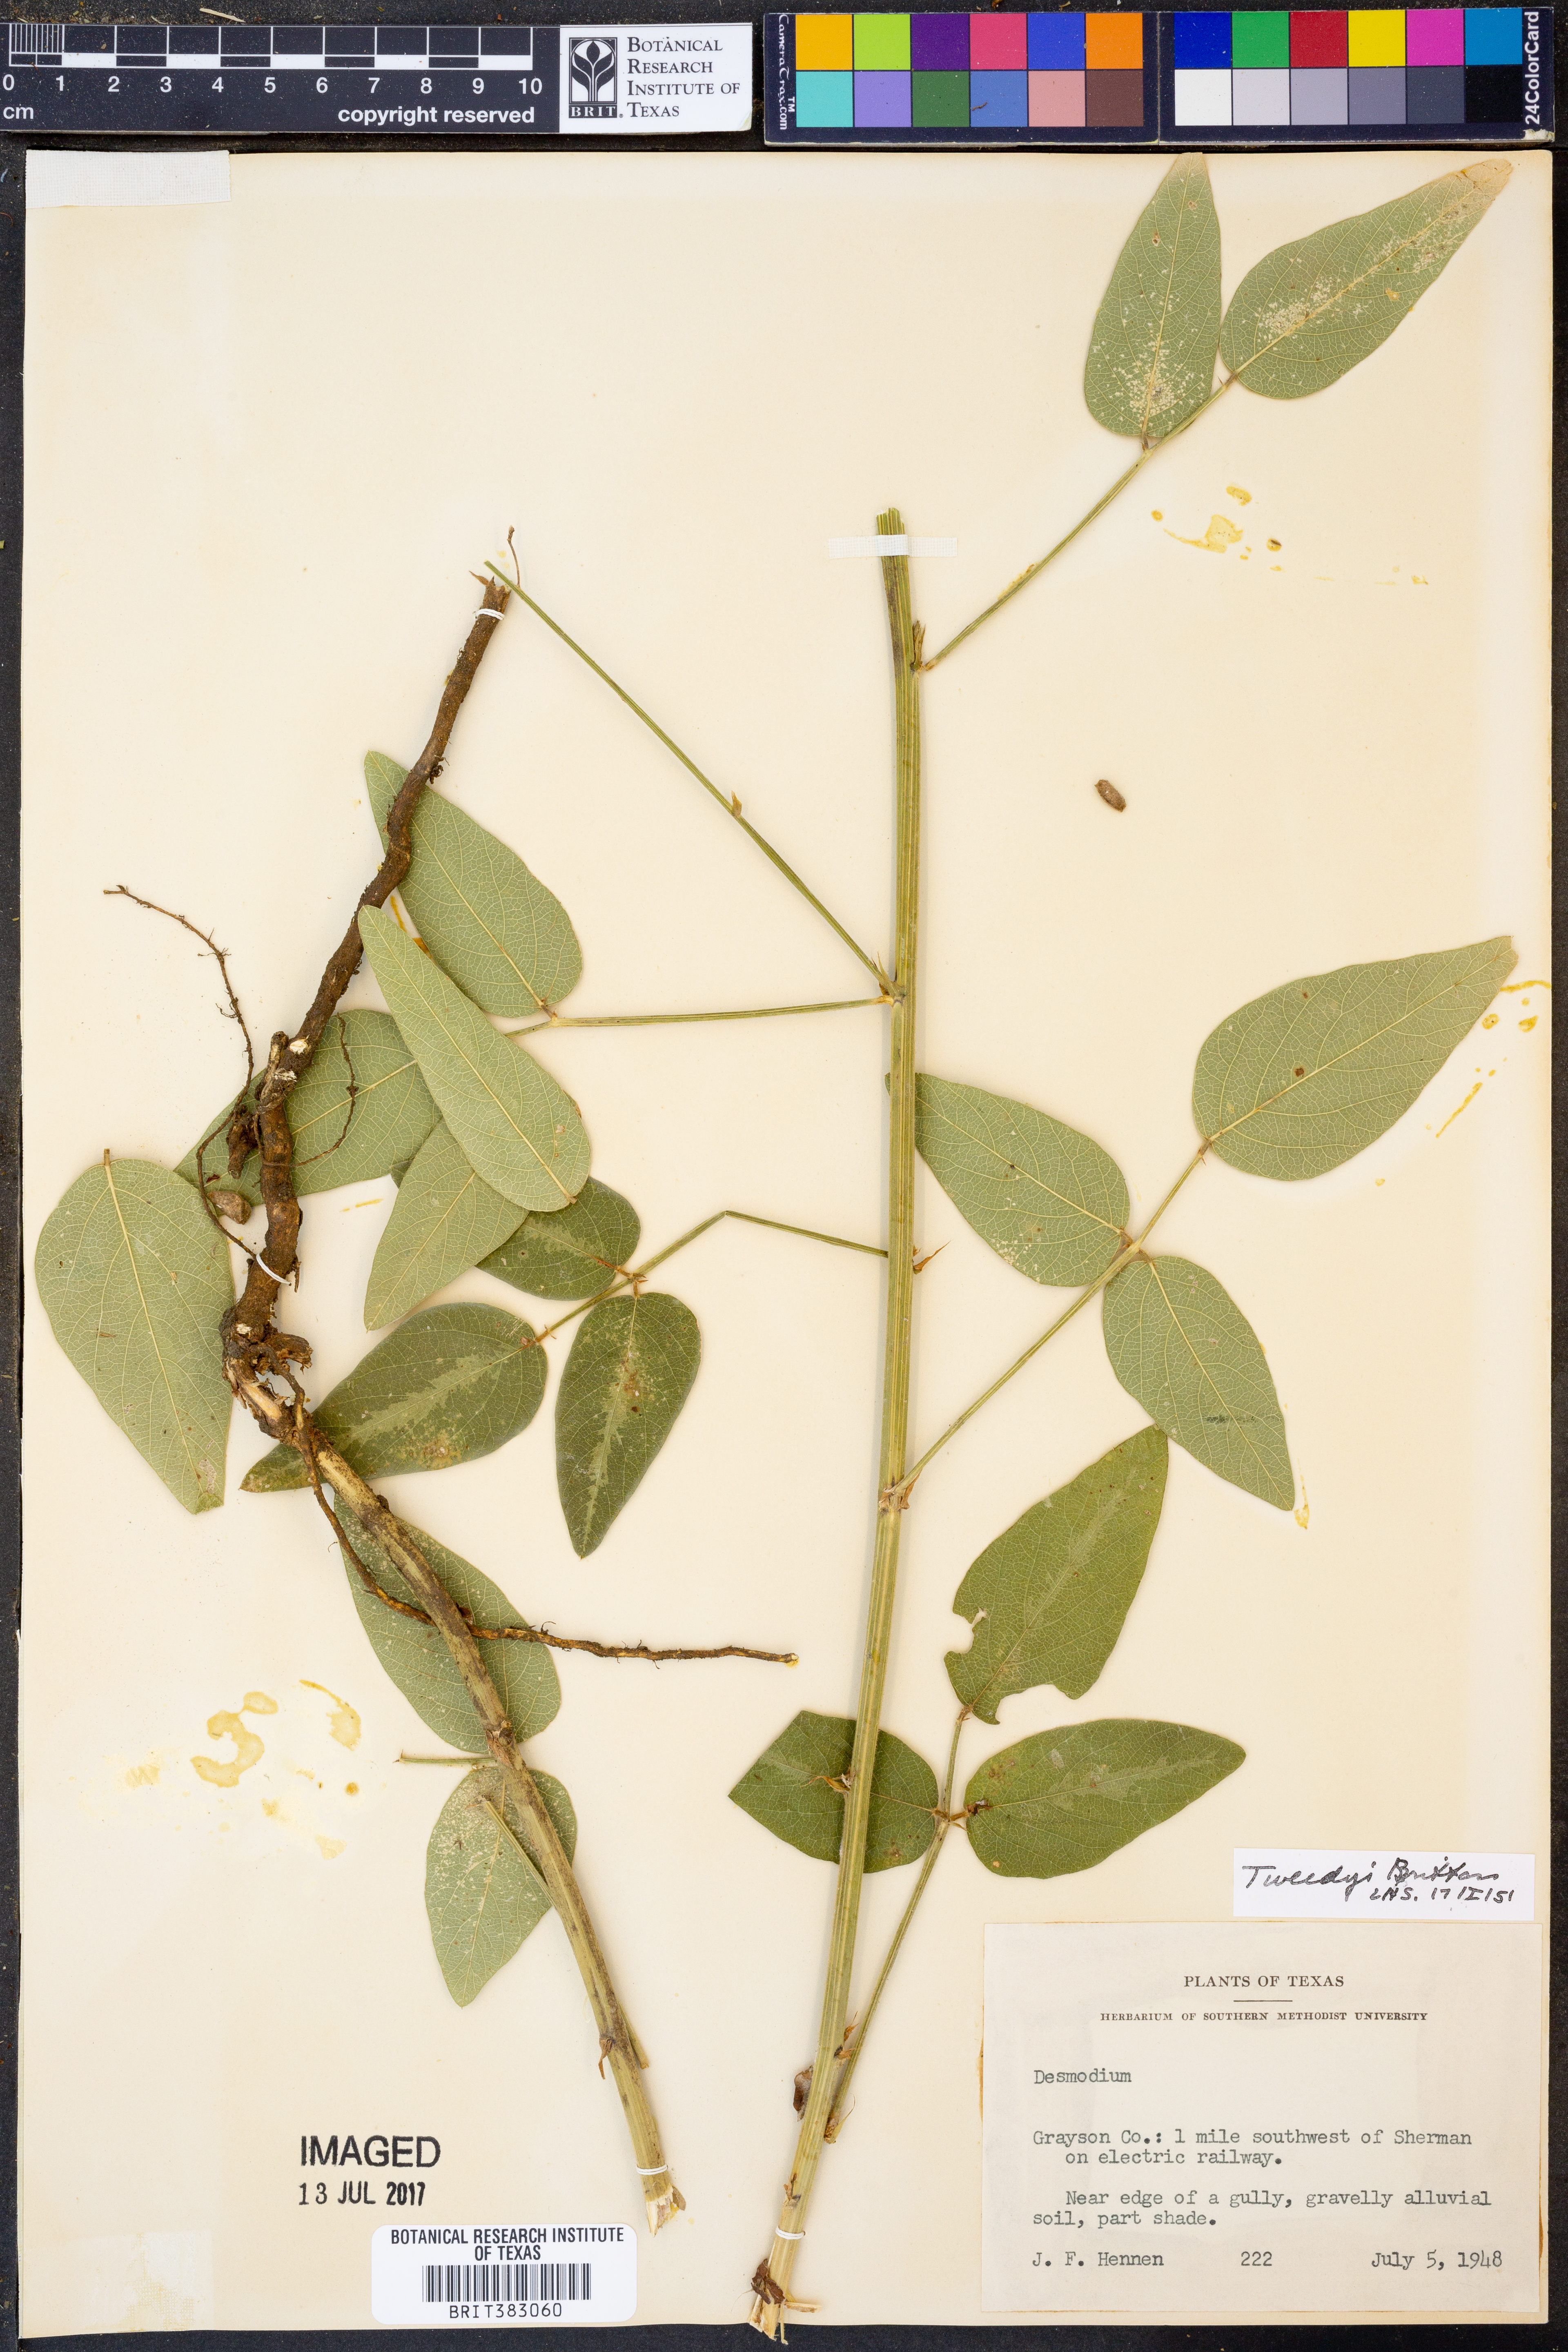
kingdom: Plantae
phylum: Tracheophyta
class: Magnoliopsida
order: Fabales
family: Fabaceae
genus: Desmodium
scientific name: Desmodium tweedyi
